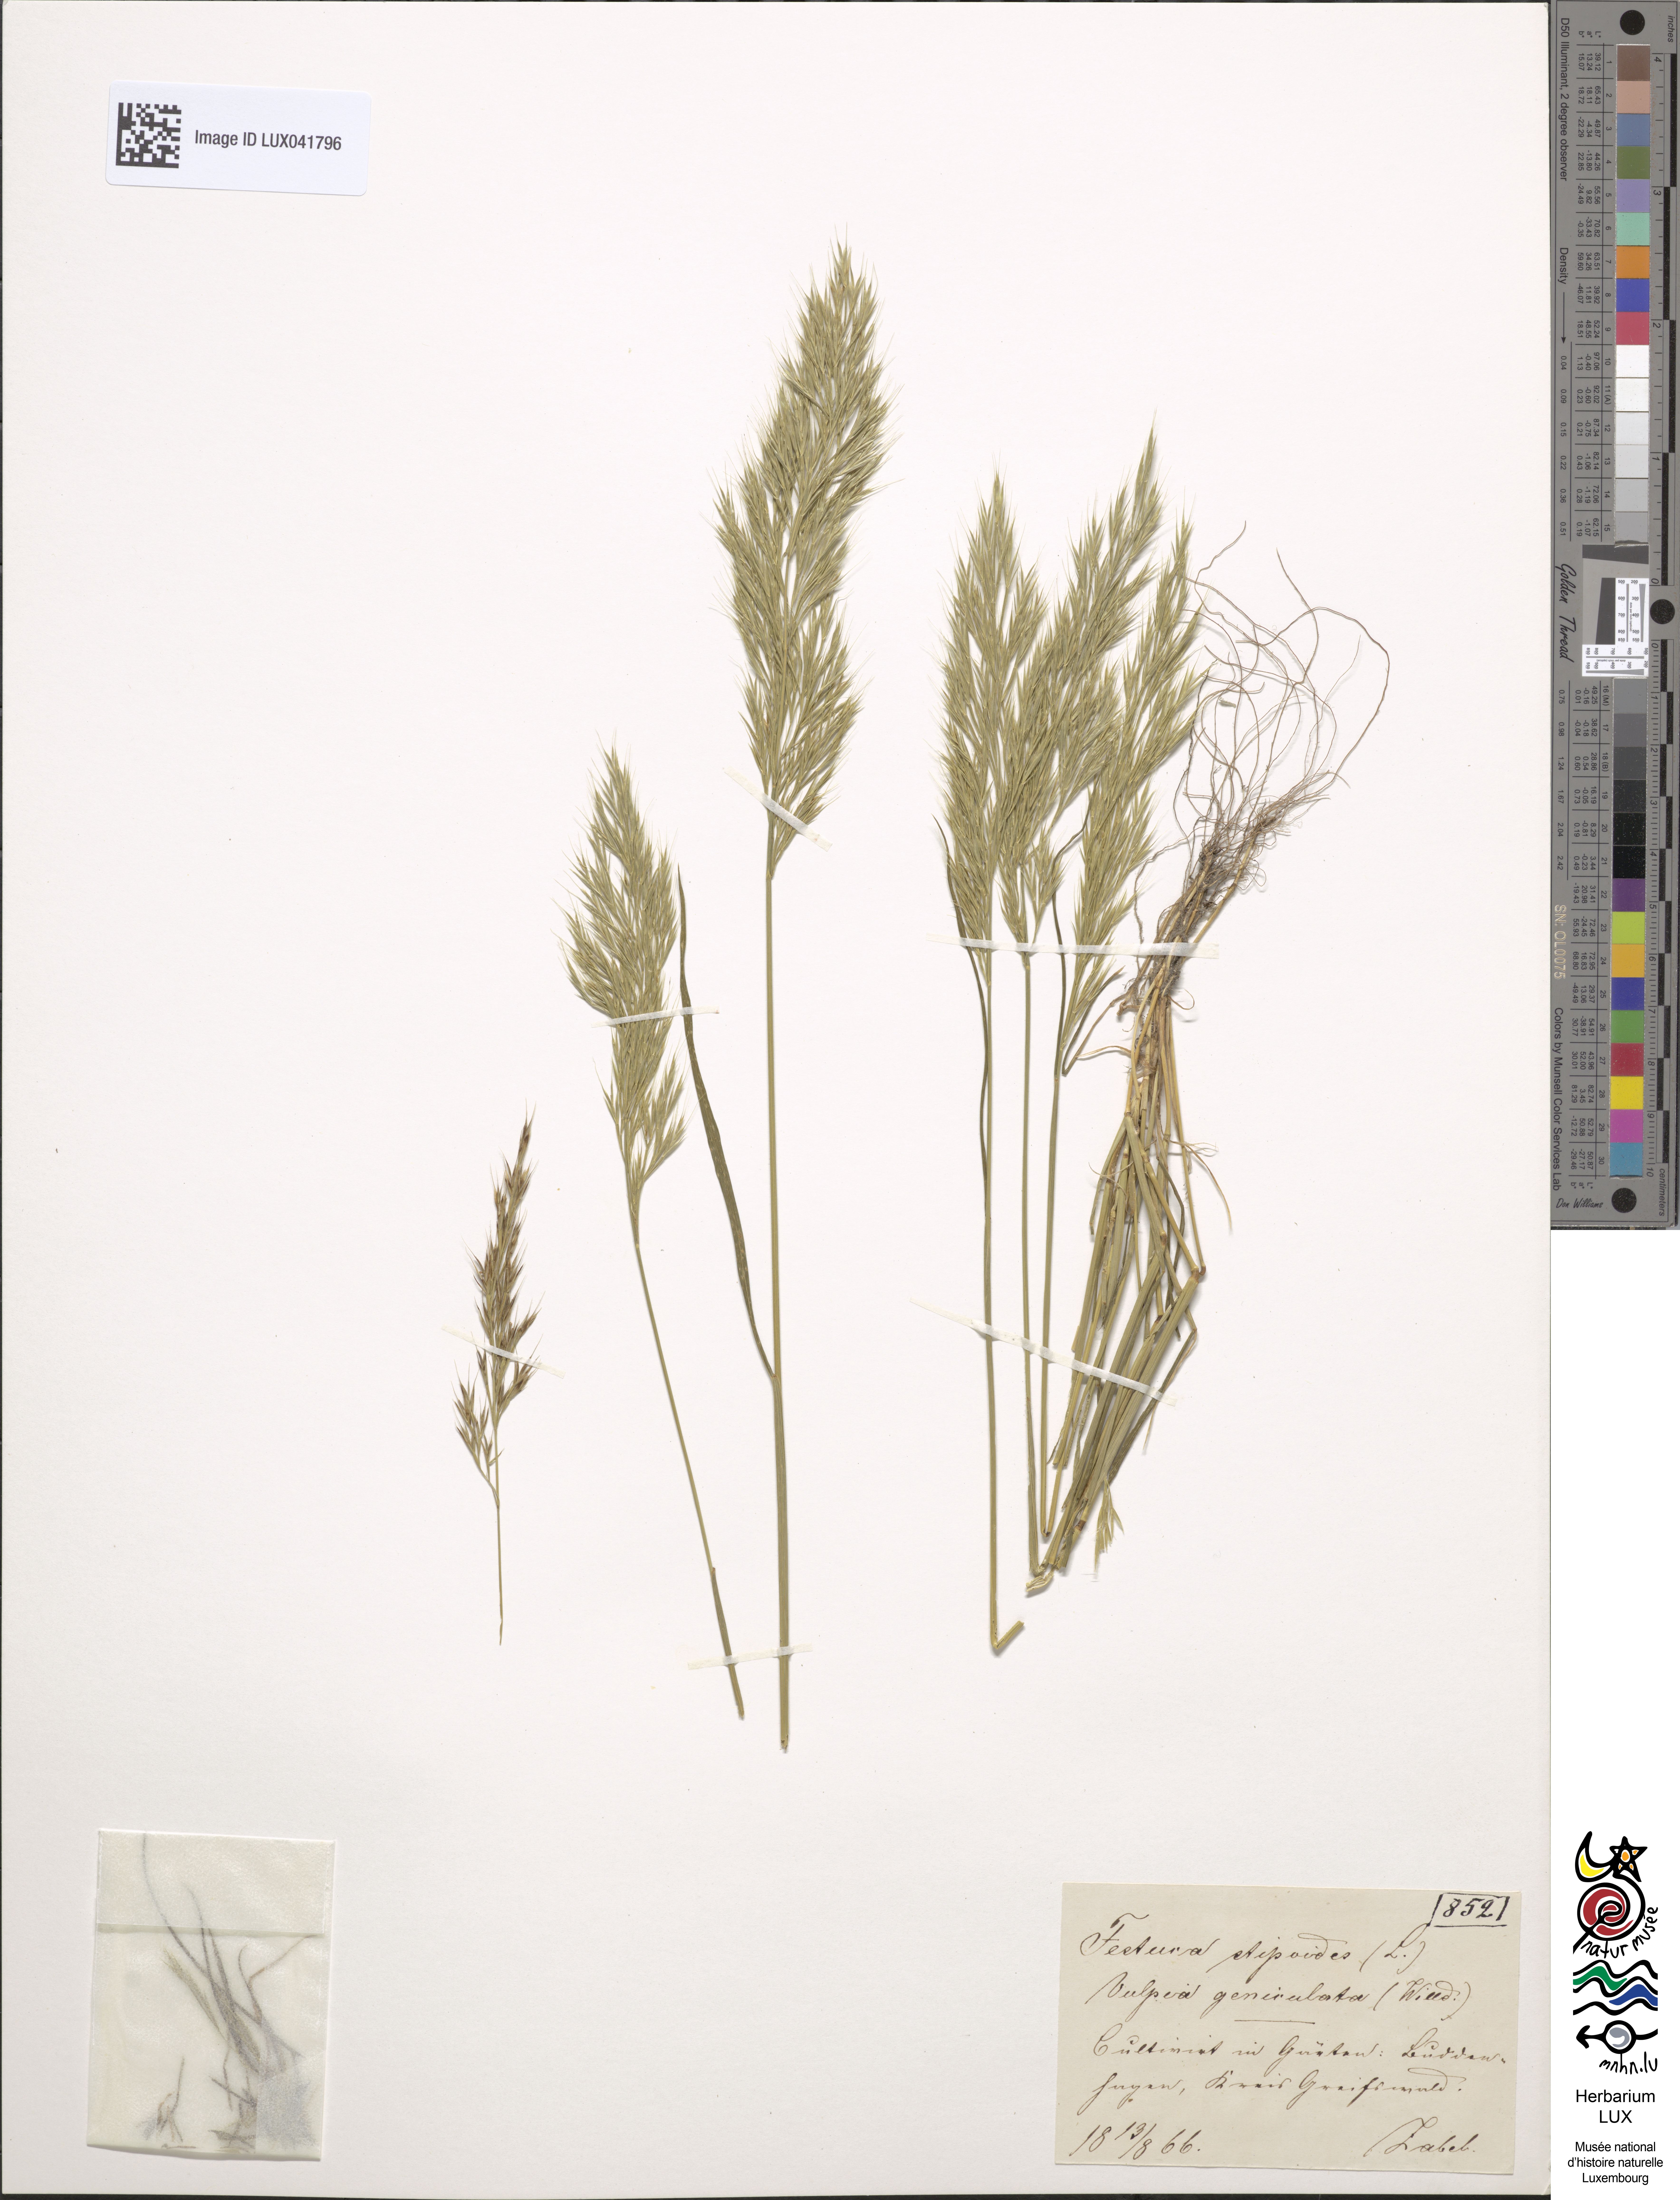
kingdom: Plantae
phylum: Tracheophyta
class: Liliopsida
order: Poales
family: Poaceae
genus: Festuca
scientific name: Festuca geniculata
